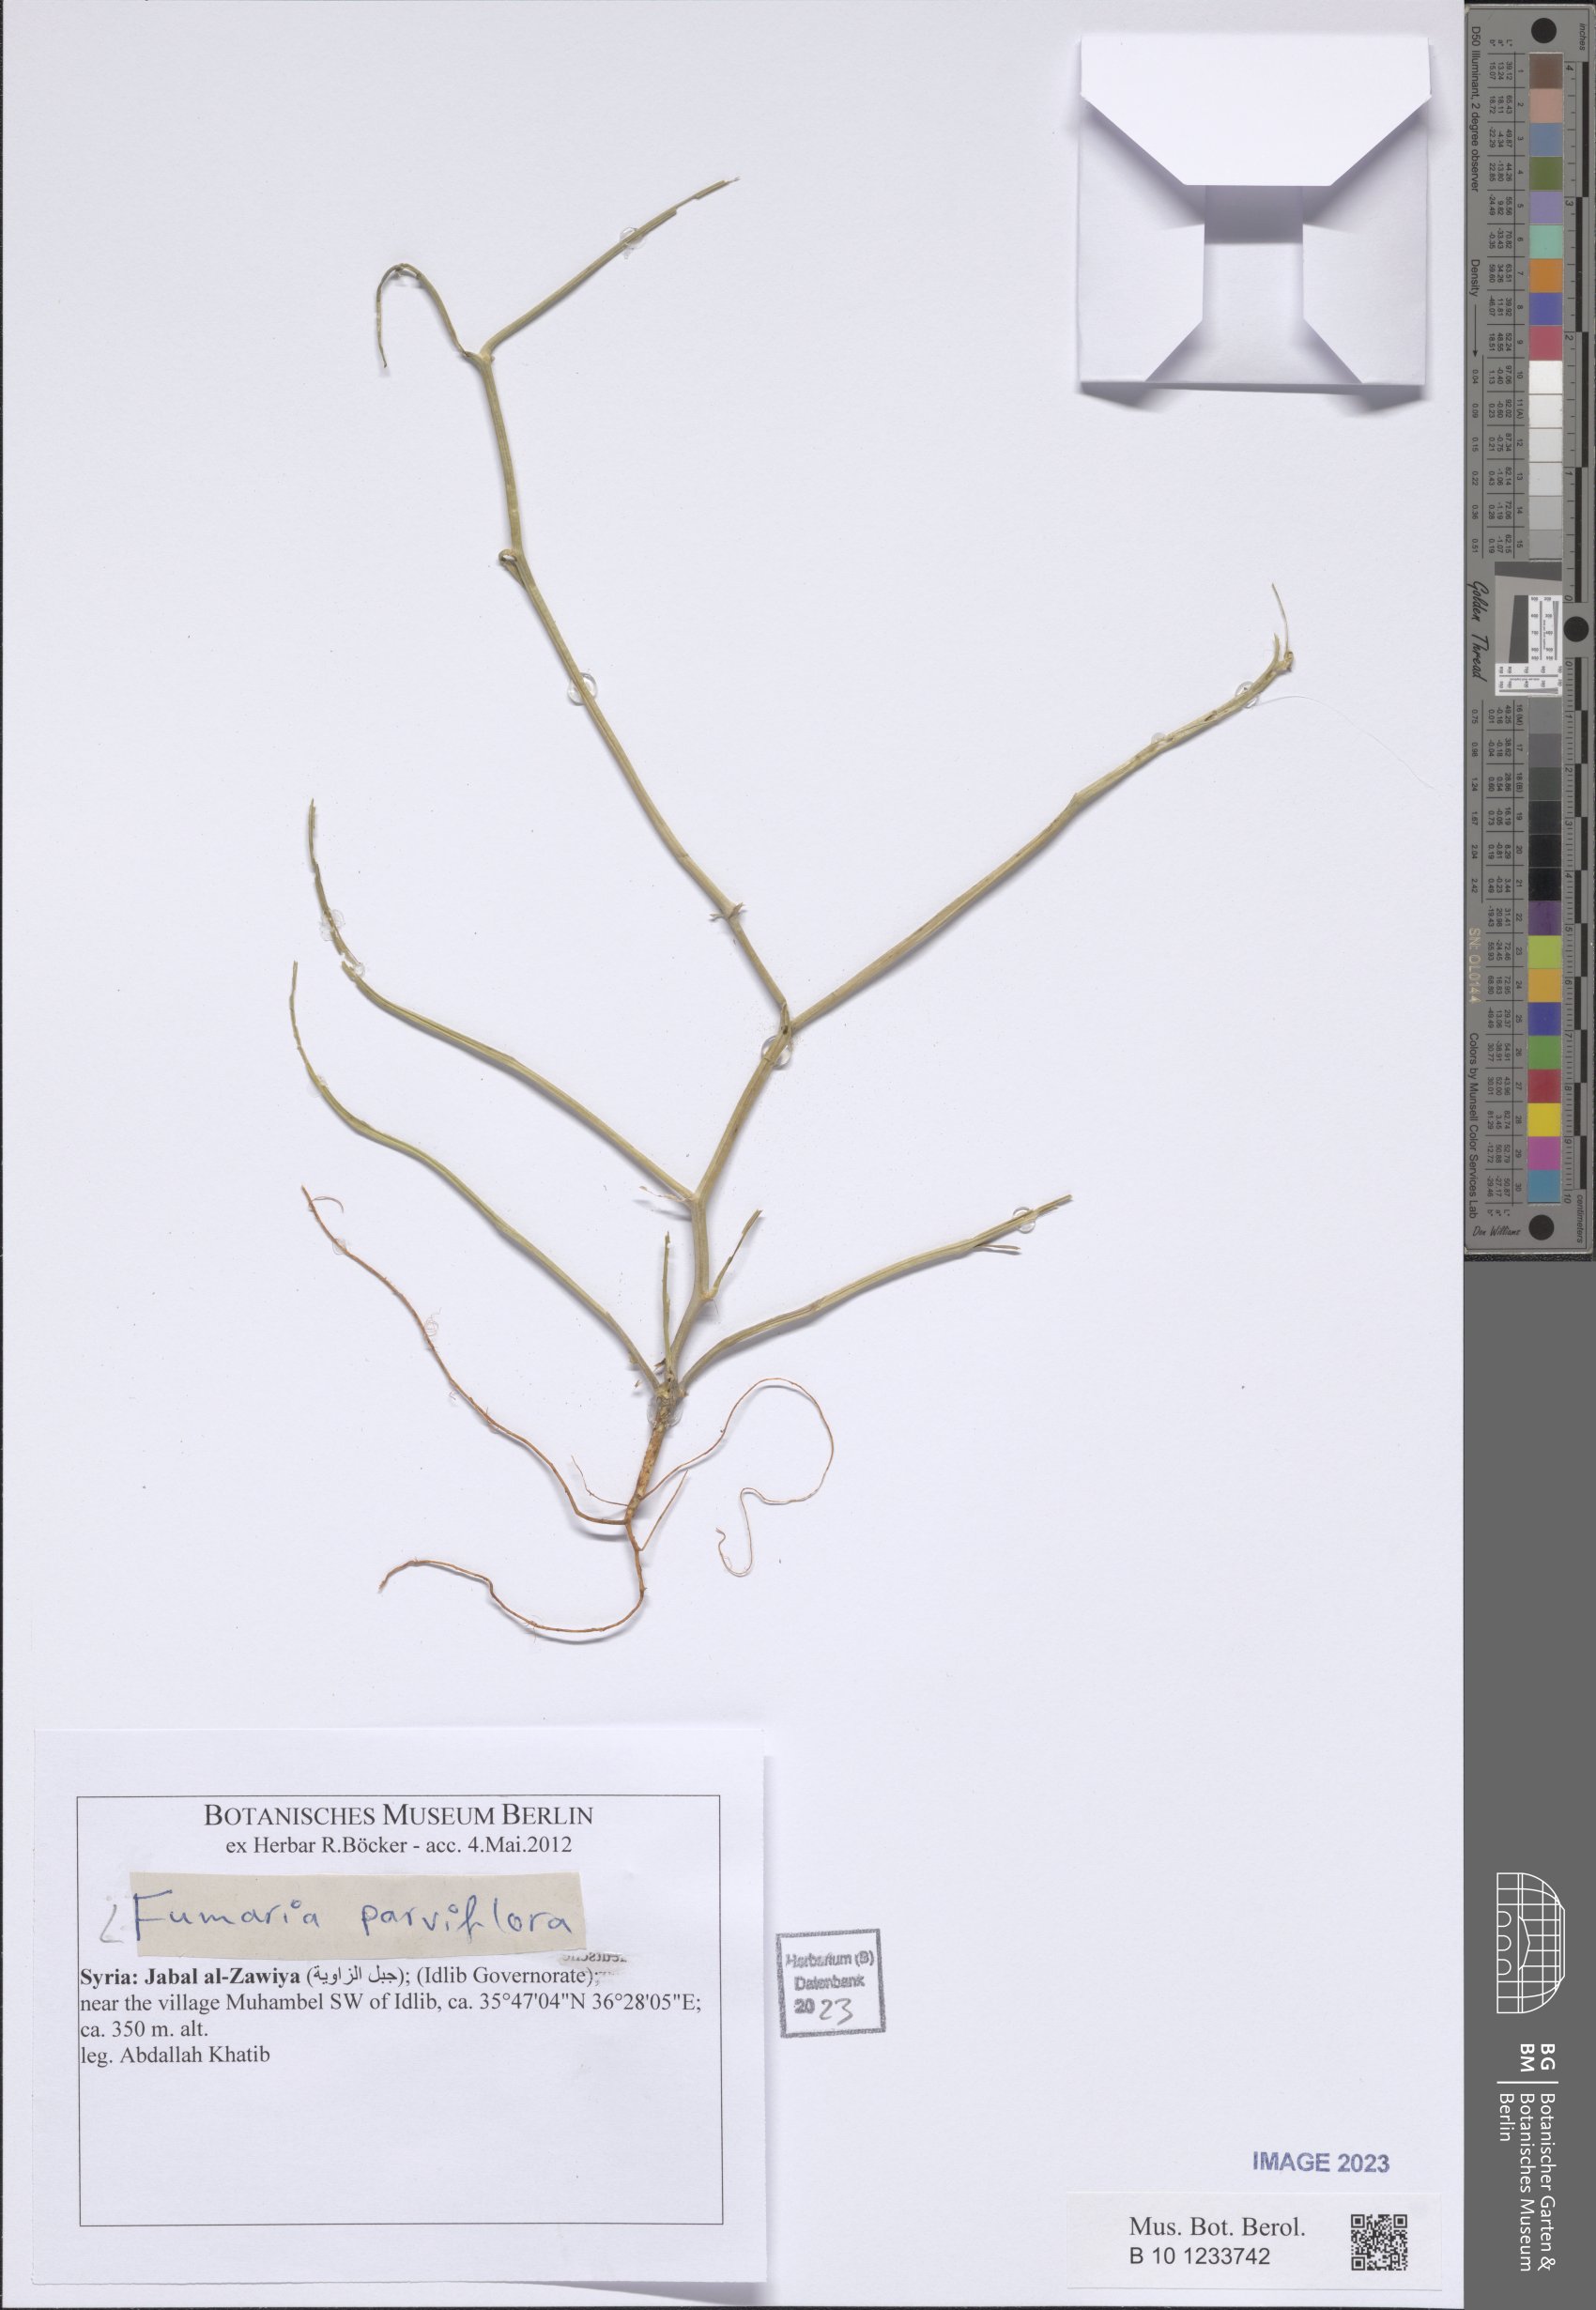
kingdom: Plantae
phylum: Tracheophyta
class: Magnoliopsida
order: Ranunculales
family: Papaveraceae
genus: Fumaria
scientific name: Fumaria parviflora
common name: Fine-leaved fumitory
